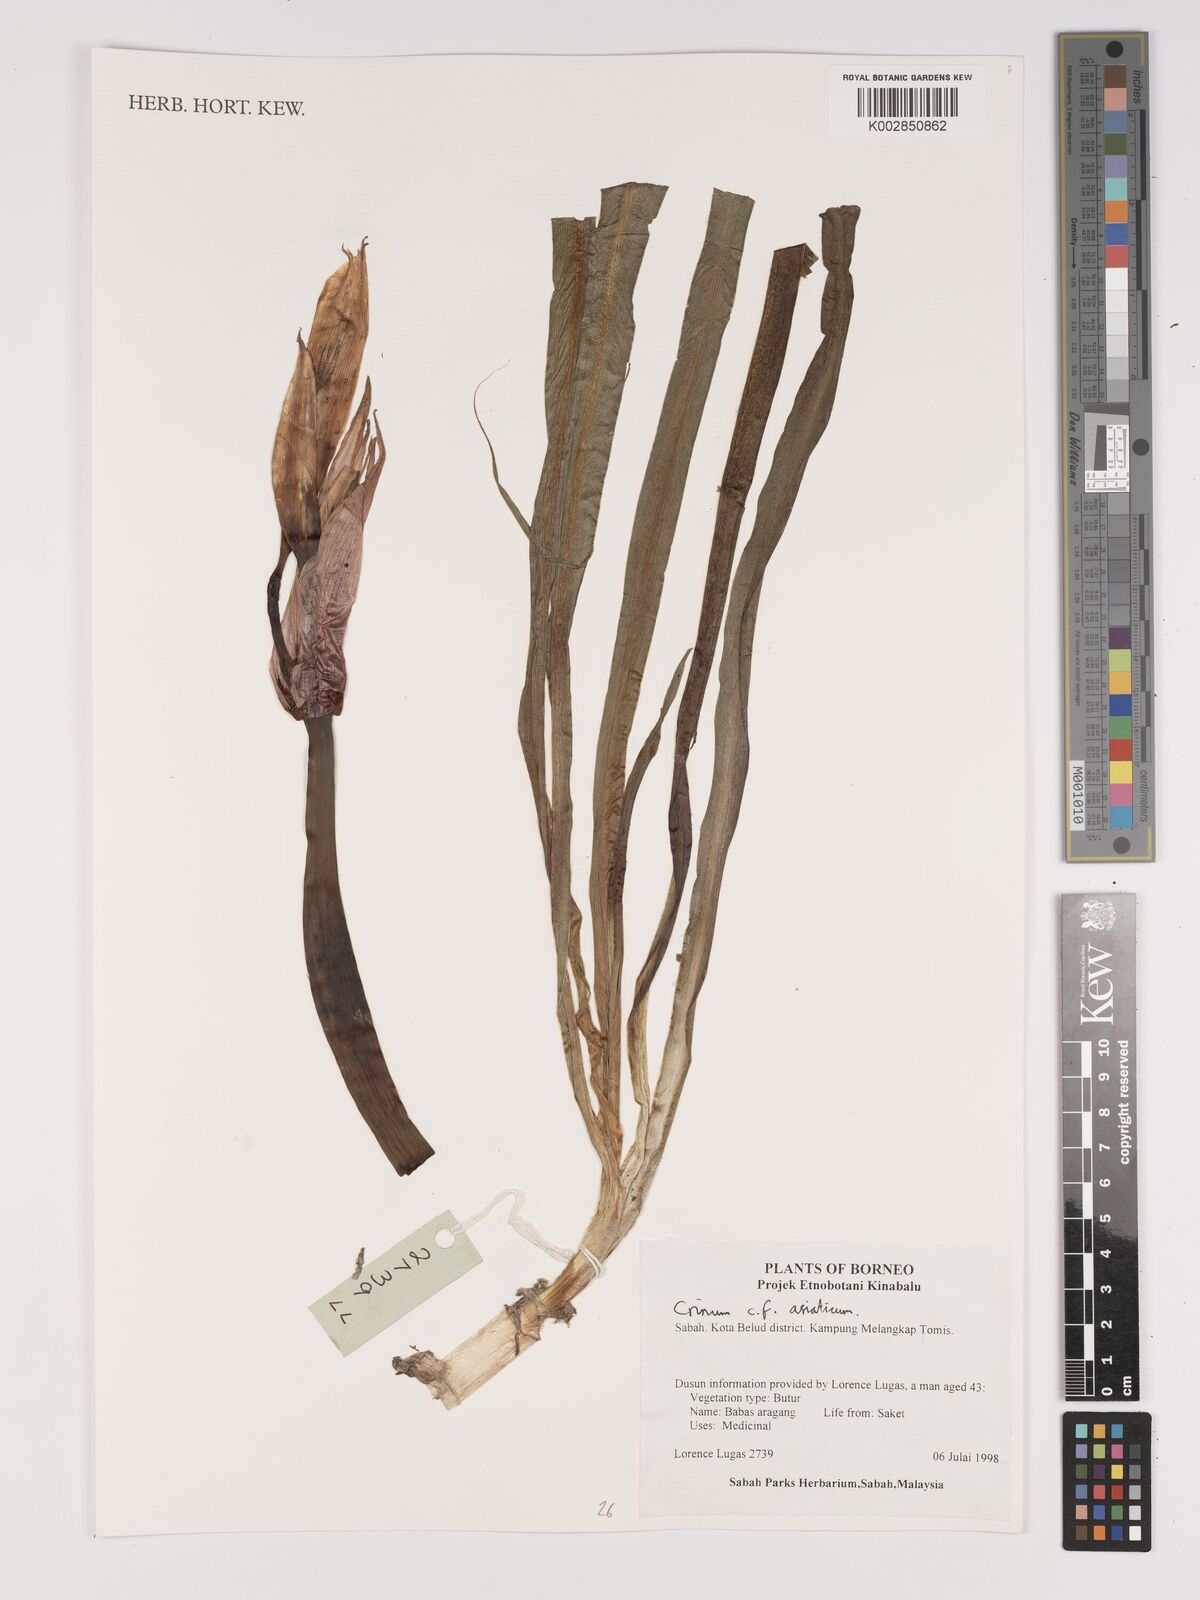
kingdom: Plantae
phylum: Tracheophyta
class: Liliopsida
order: Asparagales
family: Amaryllidaceae
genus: Crinum
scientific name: Crinum asiaticum
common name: Poisonbulb
